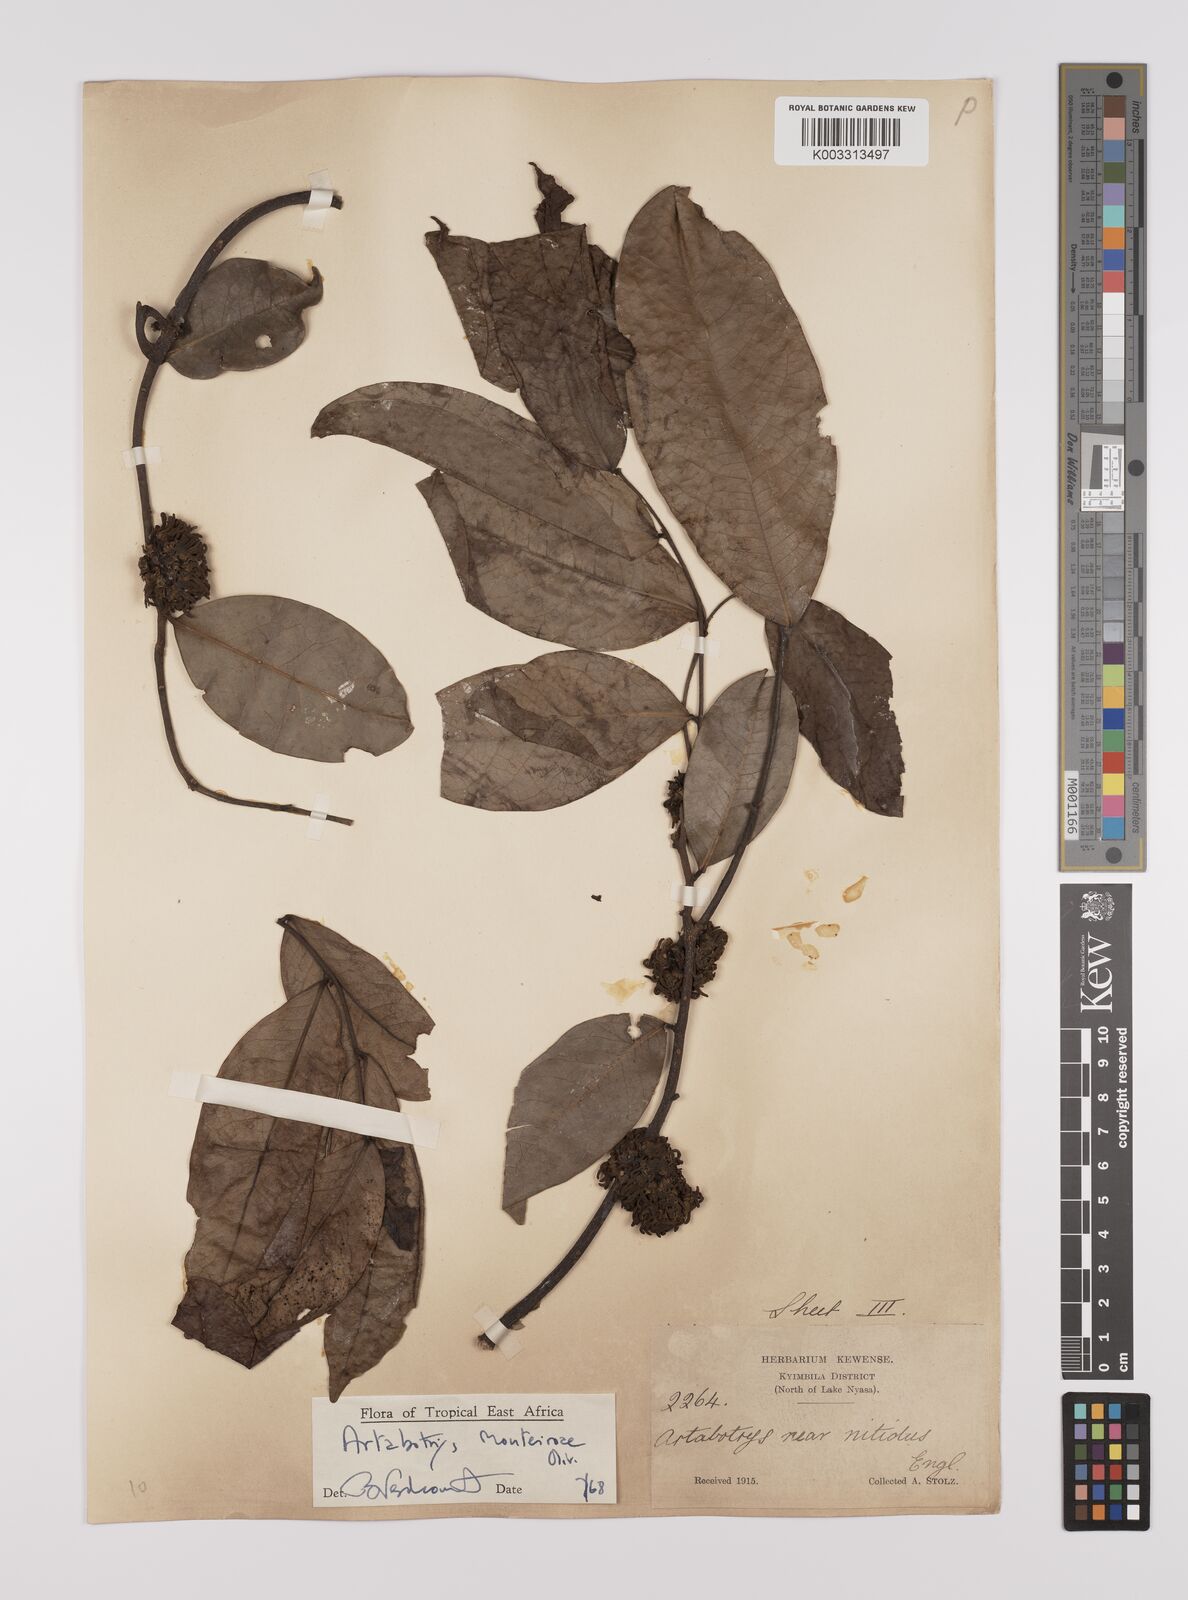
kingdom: Plantae
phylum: Tracheophyta
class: Magnoliopsida
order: Magnoliales
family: Annonaceae
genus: Artabotrys
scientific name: Artabotrys monteiroae
